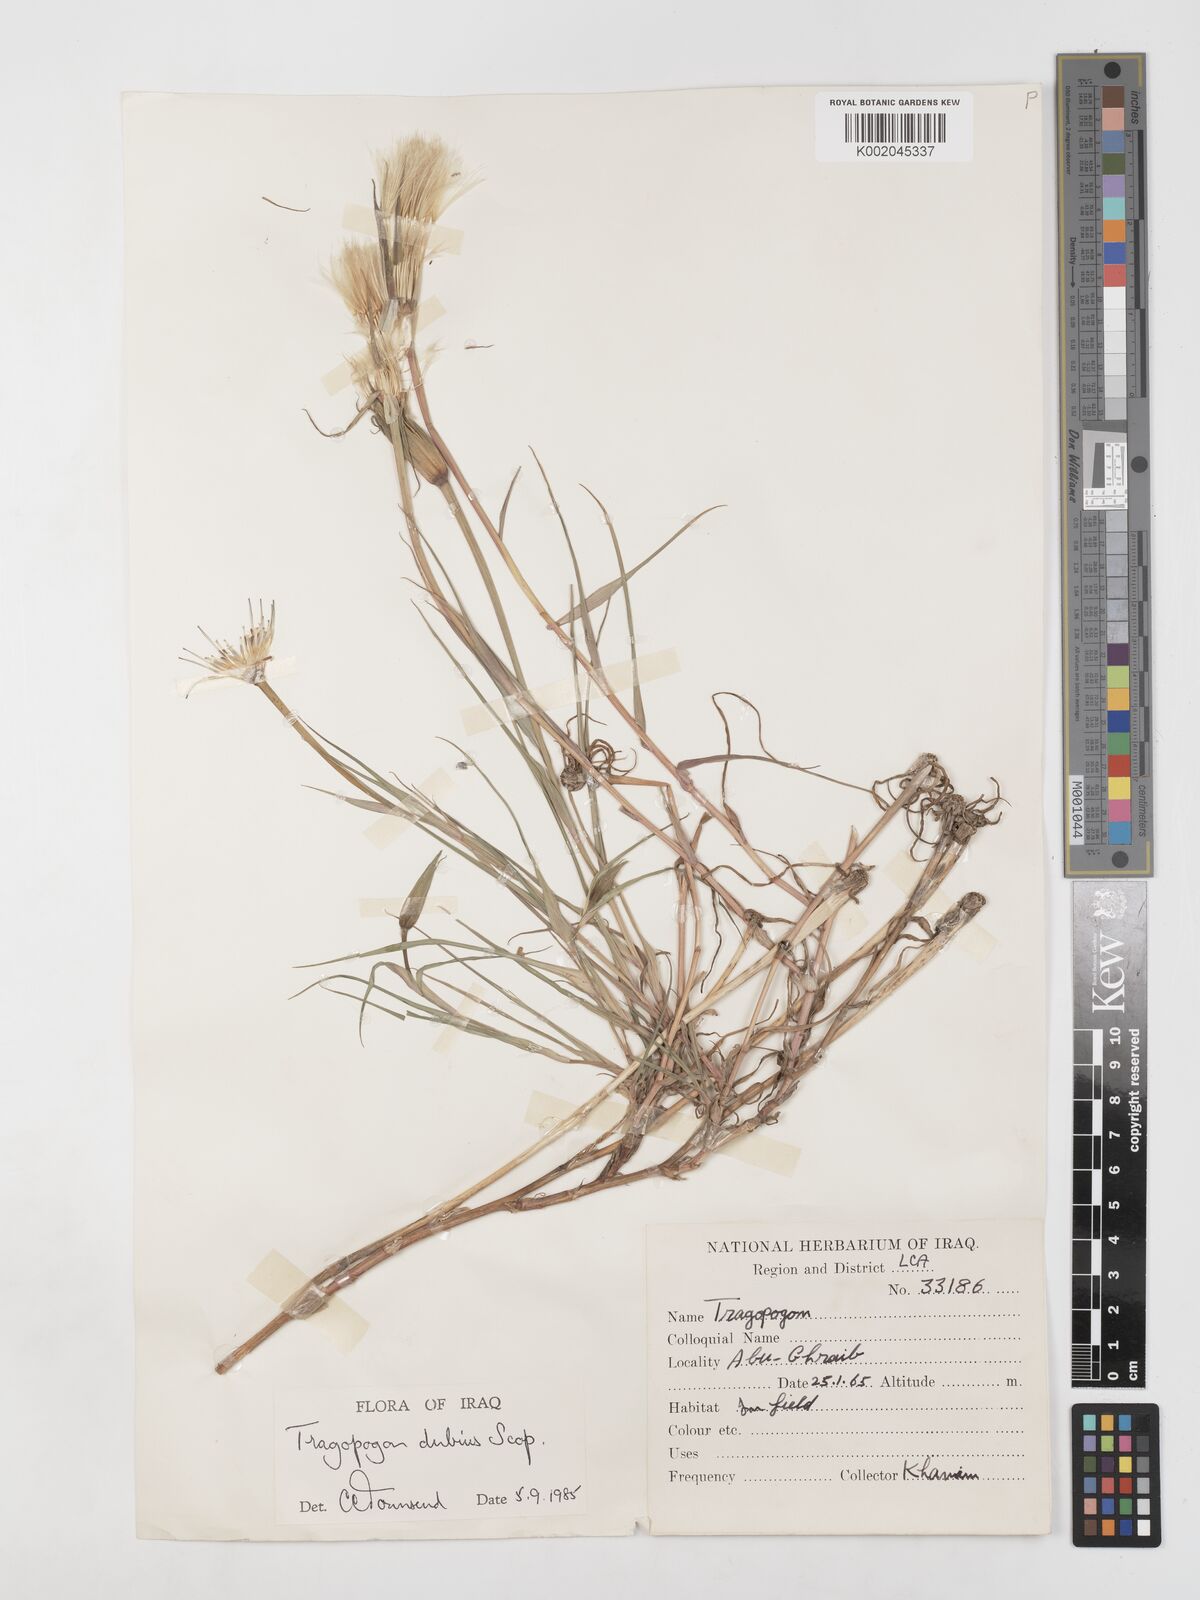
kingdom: Plantae
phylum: Tracheophyta
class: Magnoliopsida
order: Asterales
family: Asteraceae
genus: Tragopogon
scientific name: Tragopogon dubius
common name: Yellow salsify
